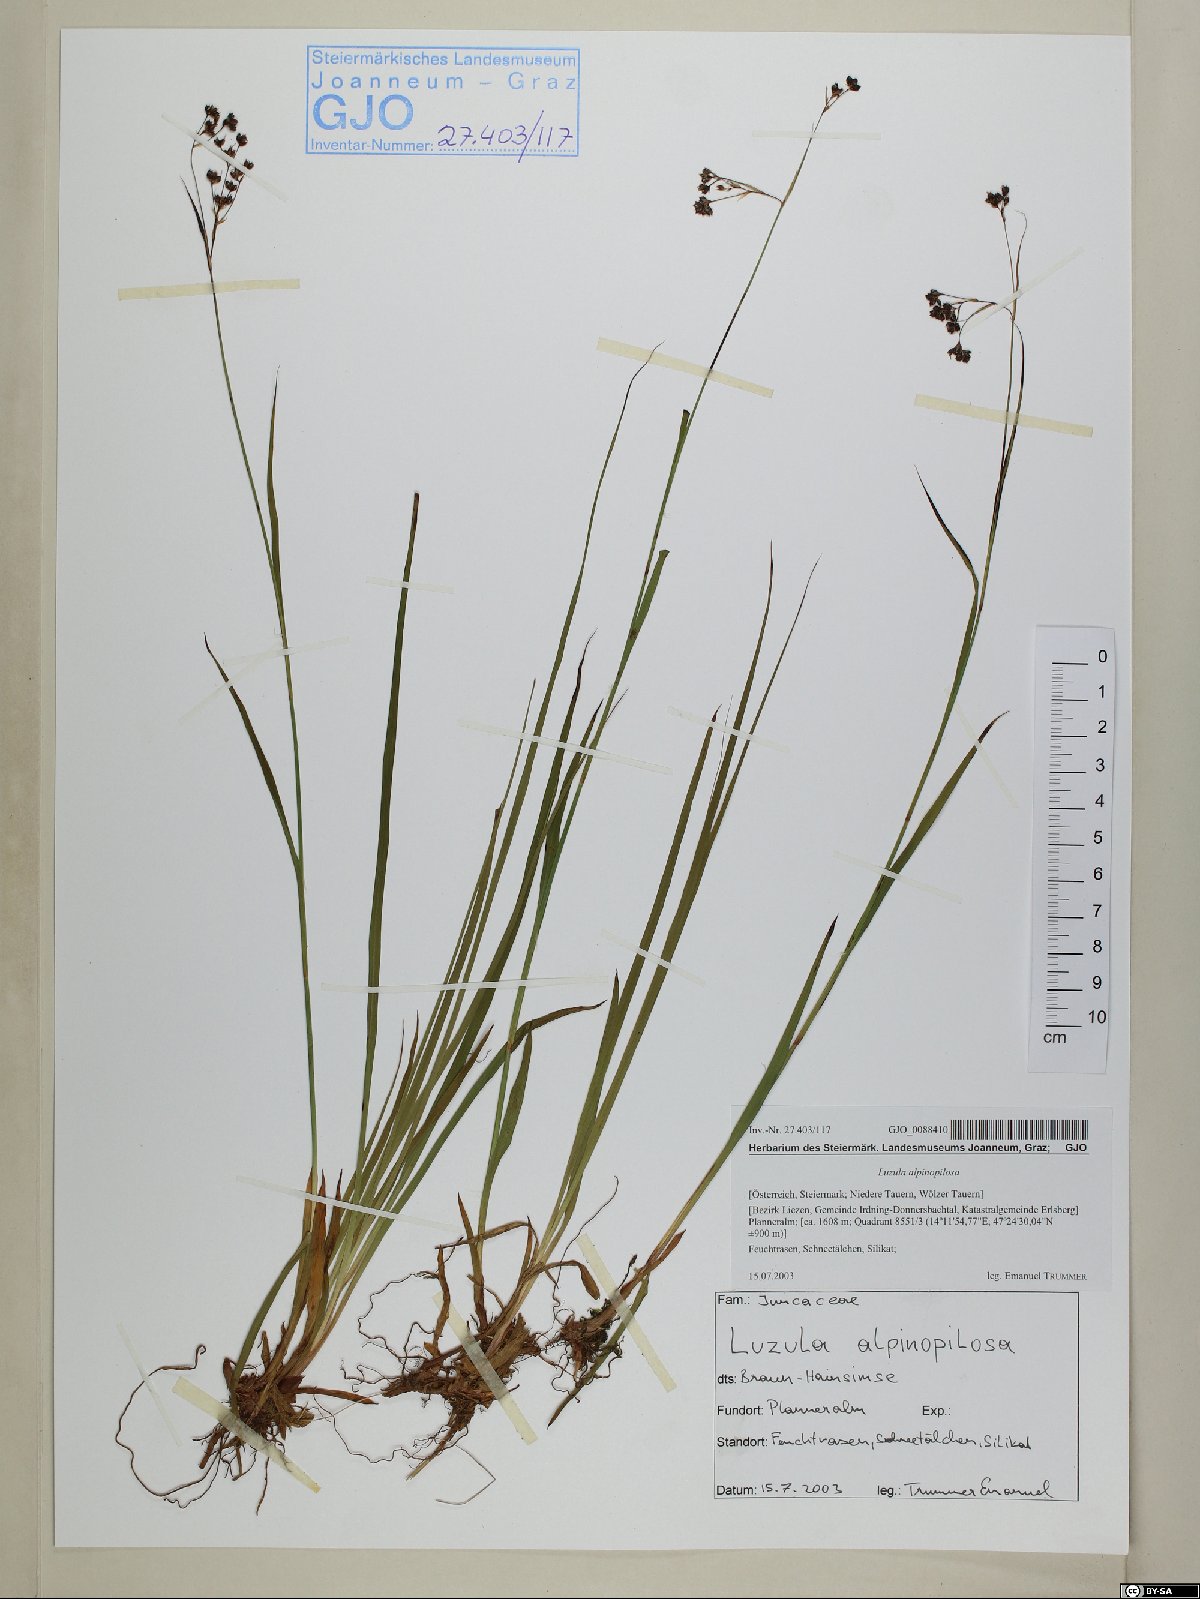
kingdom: Plantae
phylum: Tracheophyta
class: Liliopsida
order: Poales
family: Juncaceae
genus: Luzula
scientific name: Luzula alpinopilosa
